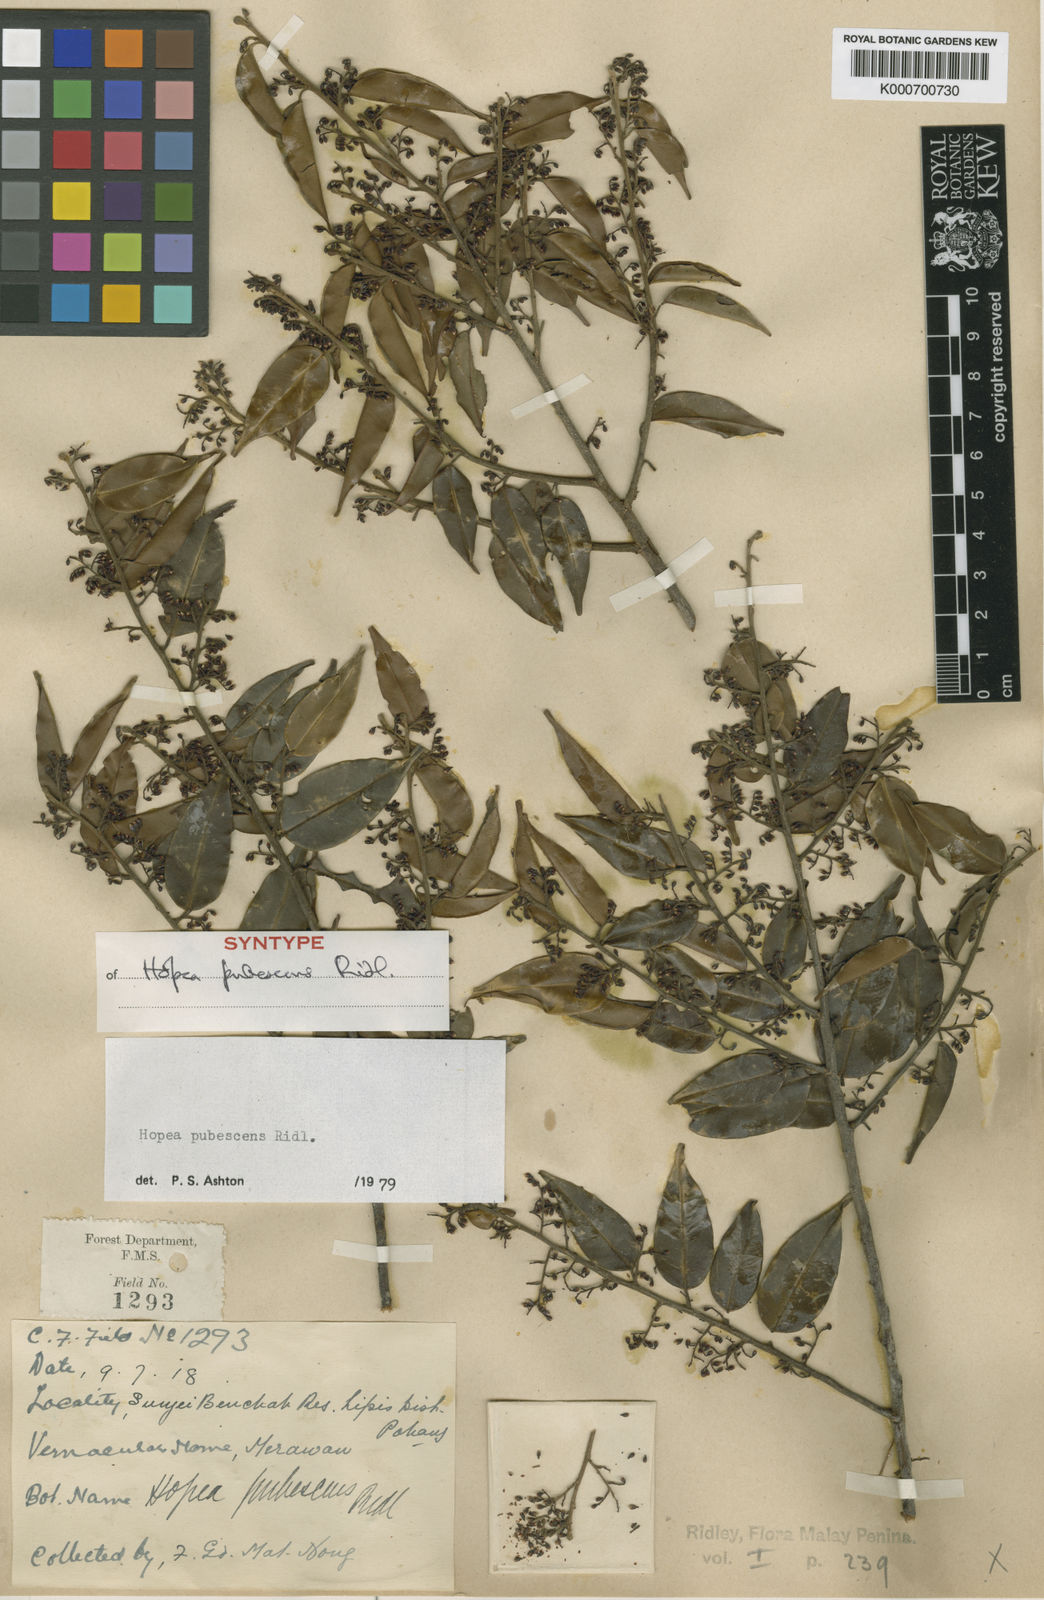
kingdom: Plantae
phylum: Tracheophyta
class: Magnoliopsida
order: Malvales
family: Dipterocarpaceae
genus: Hopea
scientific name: Hopea pubescens
